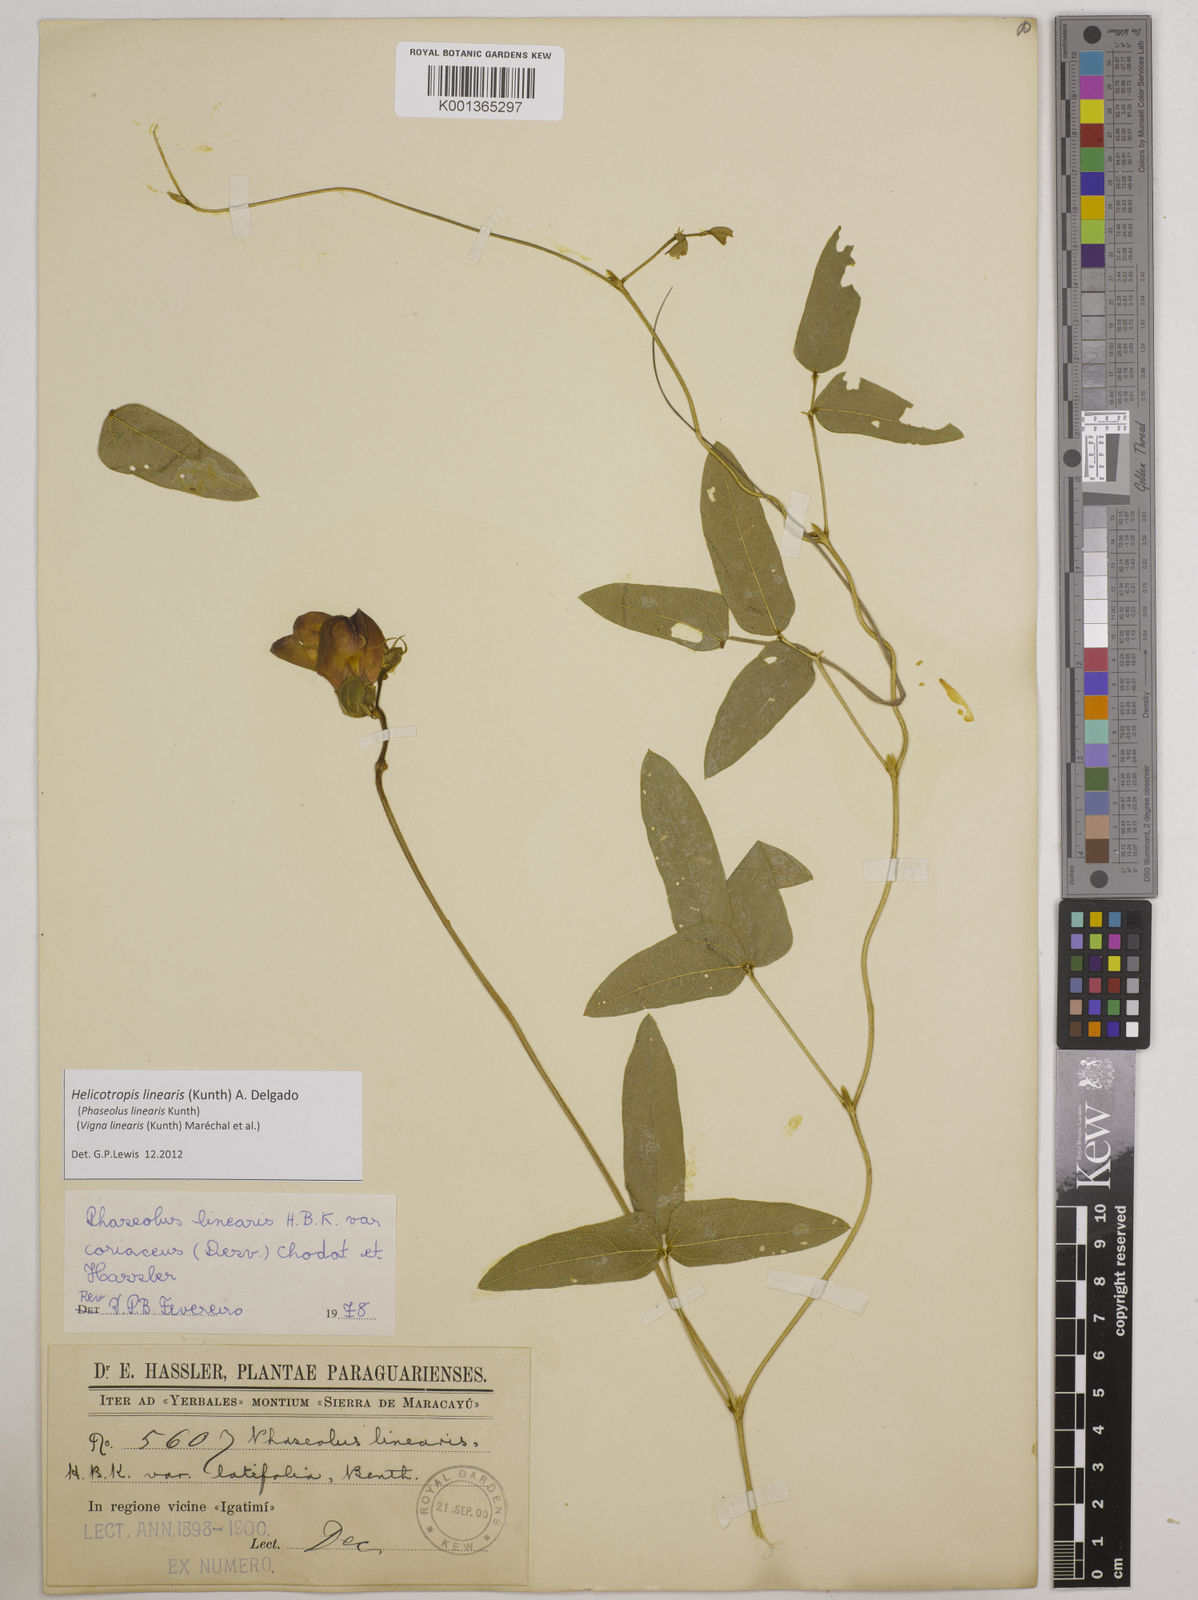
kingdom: Plantae
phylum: Tracheophyta
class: Magnoliopsida
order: Fabales
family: Fabaceae
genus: Helicotropis
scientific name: Helicotropis linearis
